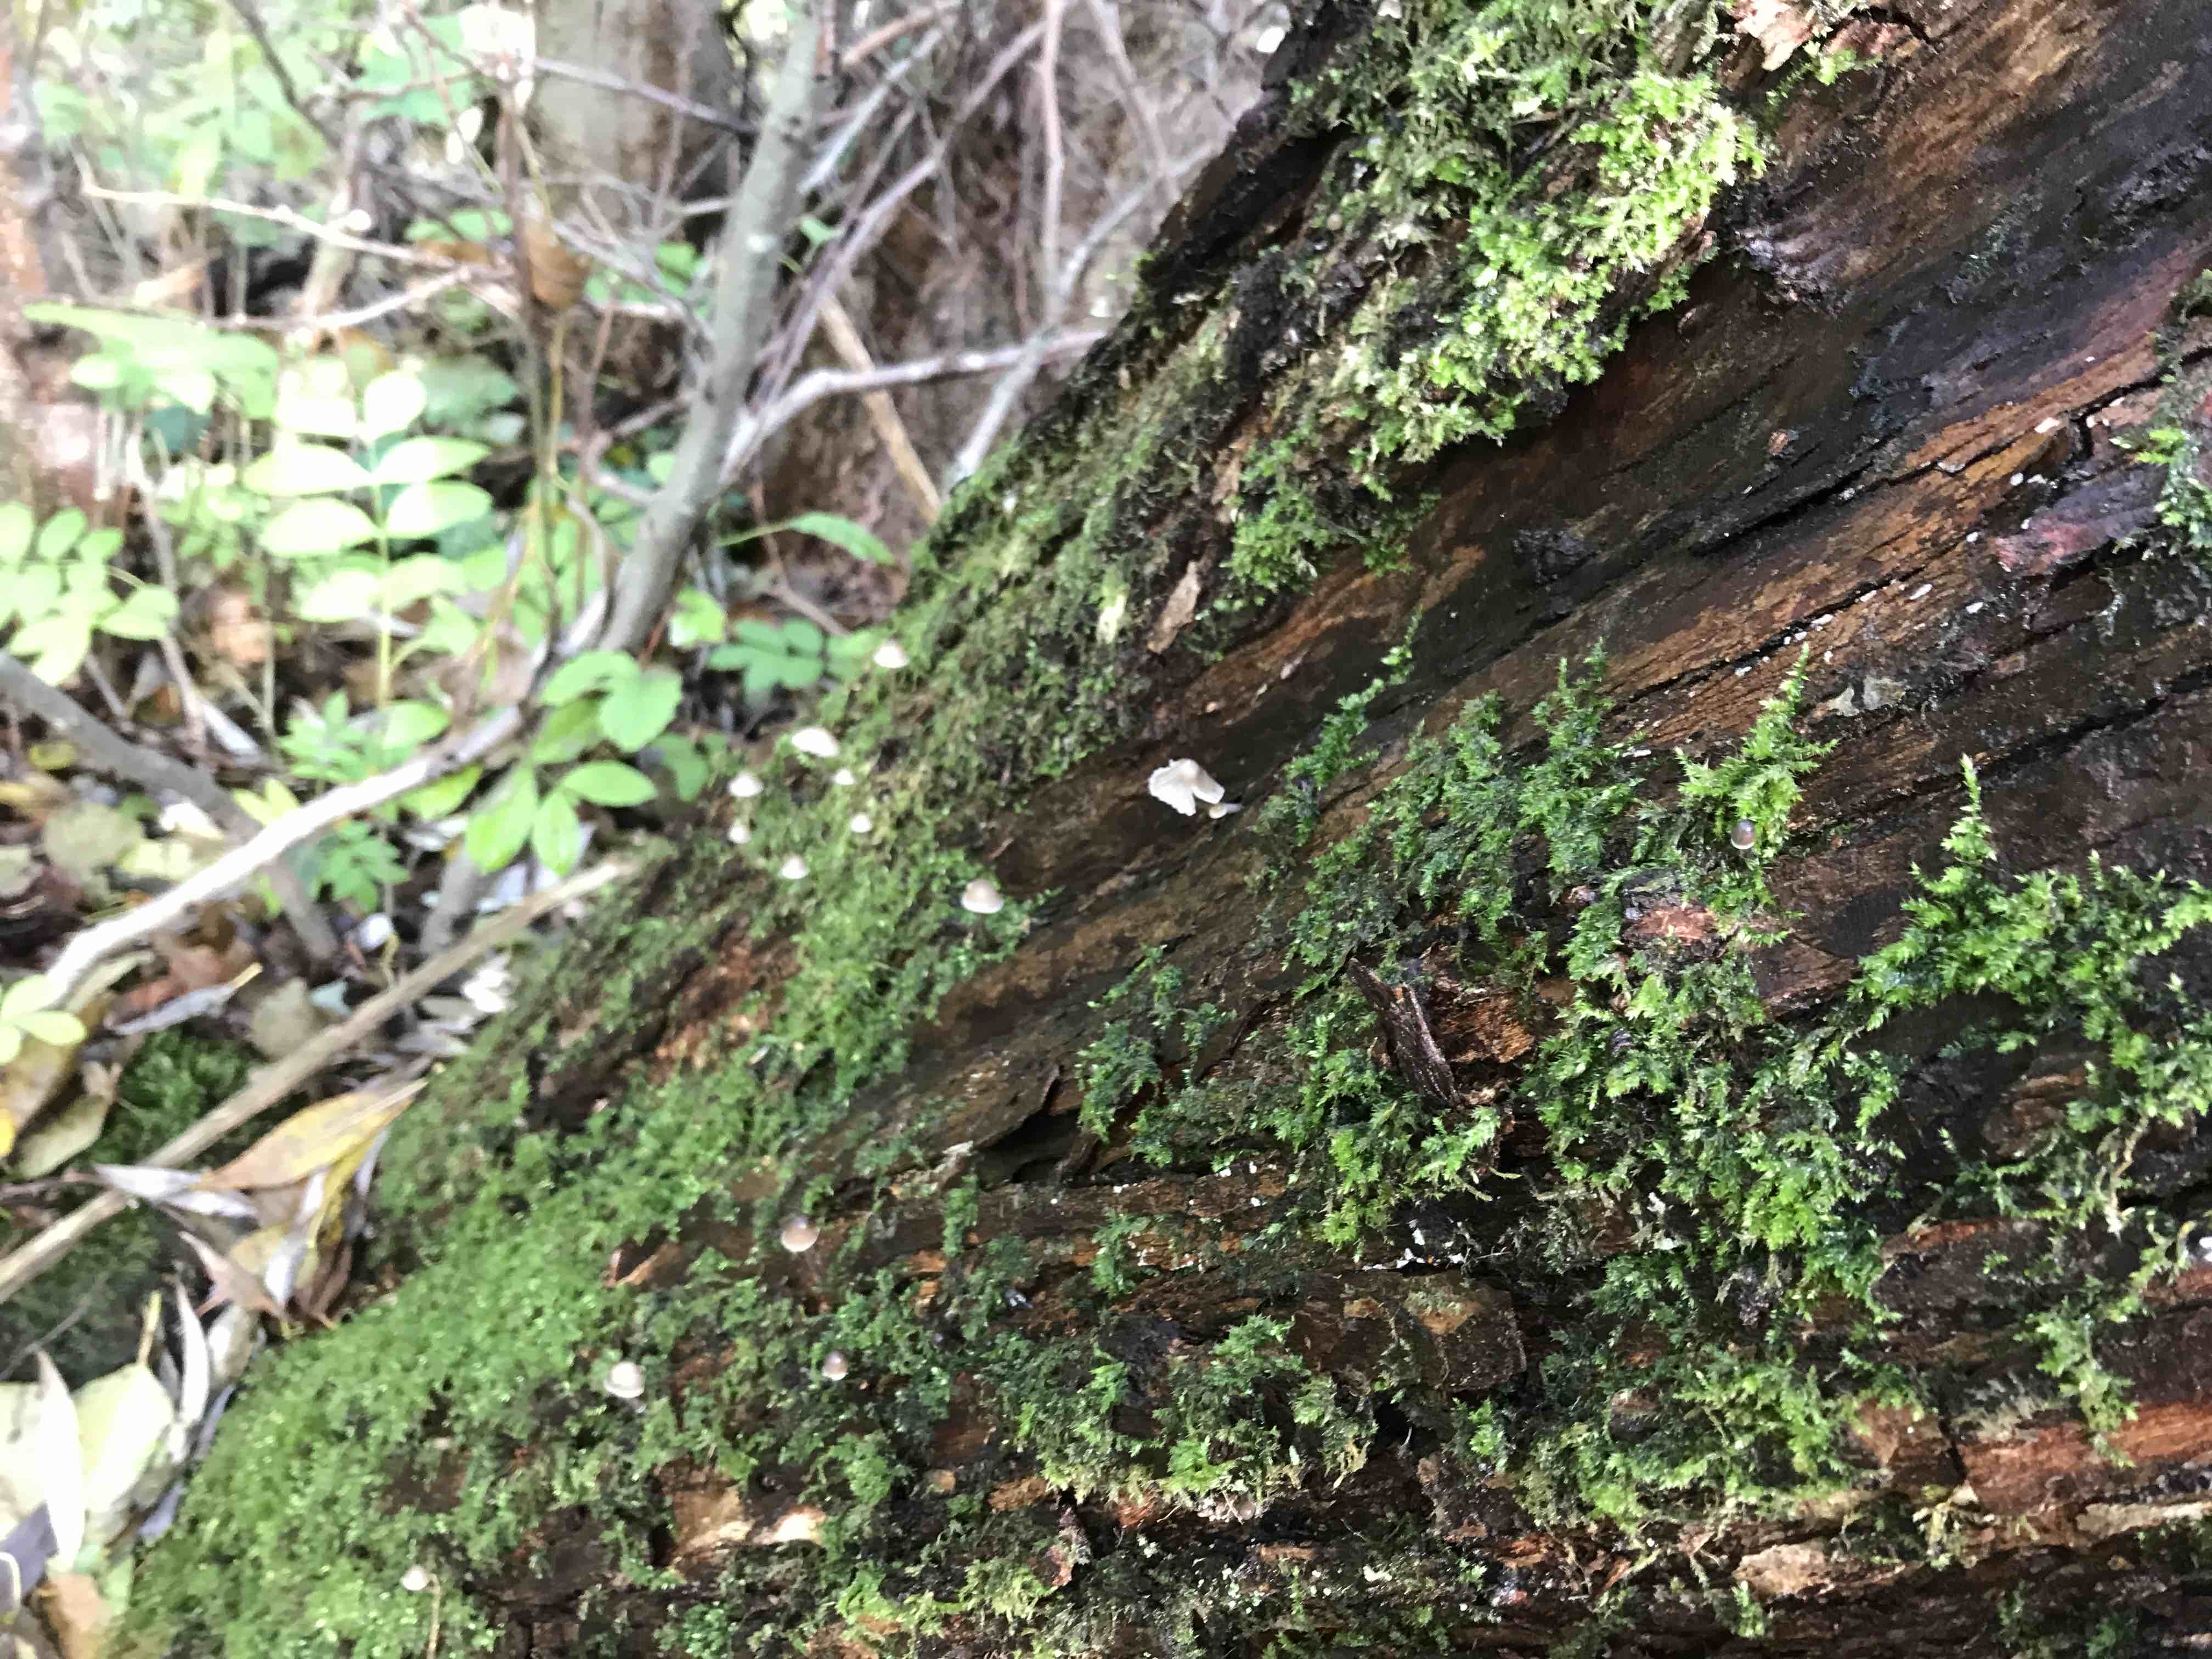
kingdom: Fungi
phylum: Basidiomycota
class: Agaricomycetes
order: Agaricales
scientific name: Agaricales
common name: champignonordenen
